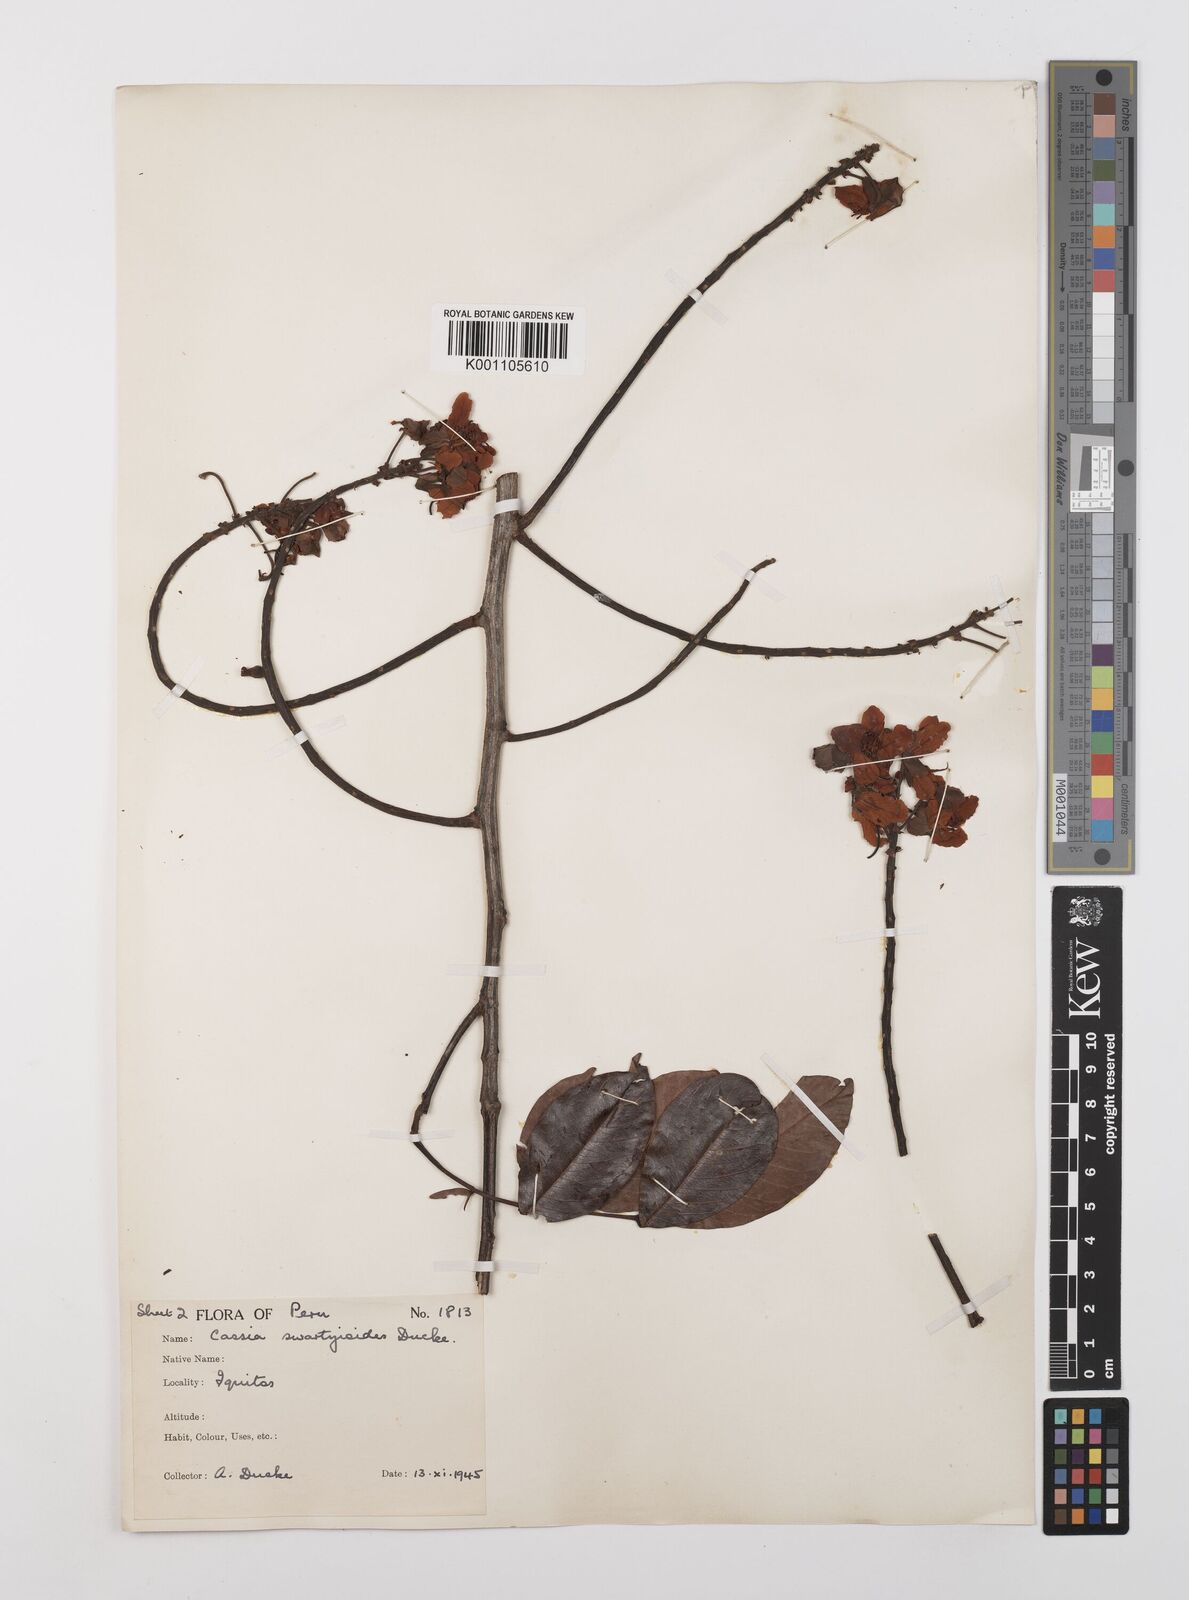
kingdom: Plantae
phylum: Tracheophyta
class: Magnoliopsida
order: Fabales
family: Fabaceae
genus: Cassia
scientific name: Cassia swartzioides
